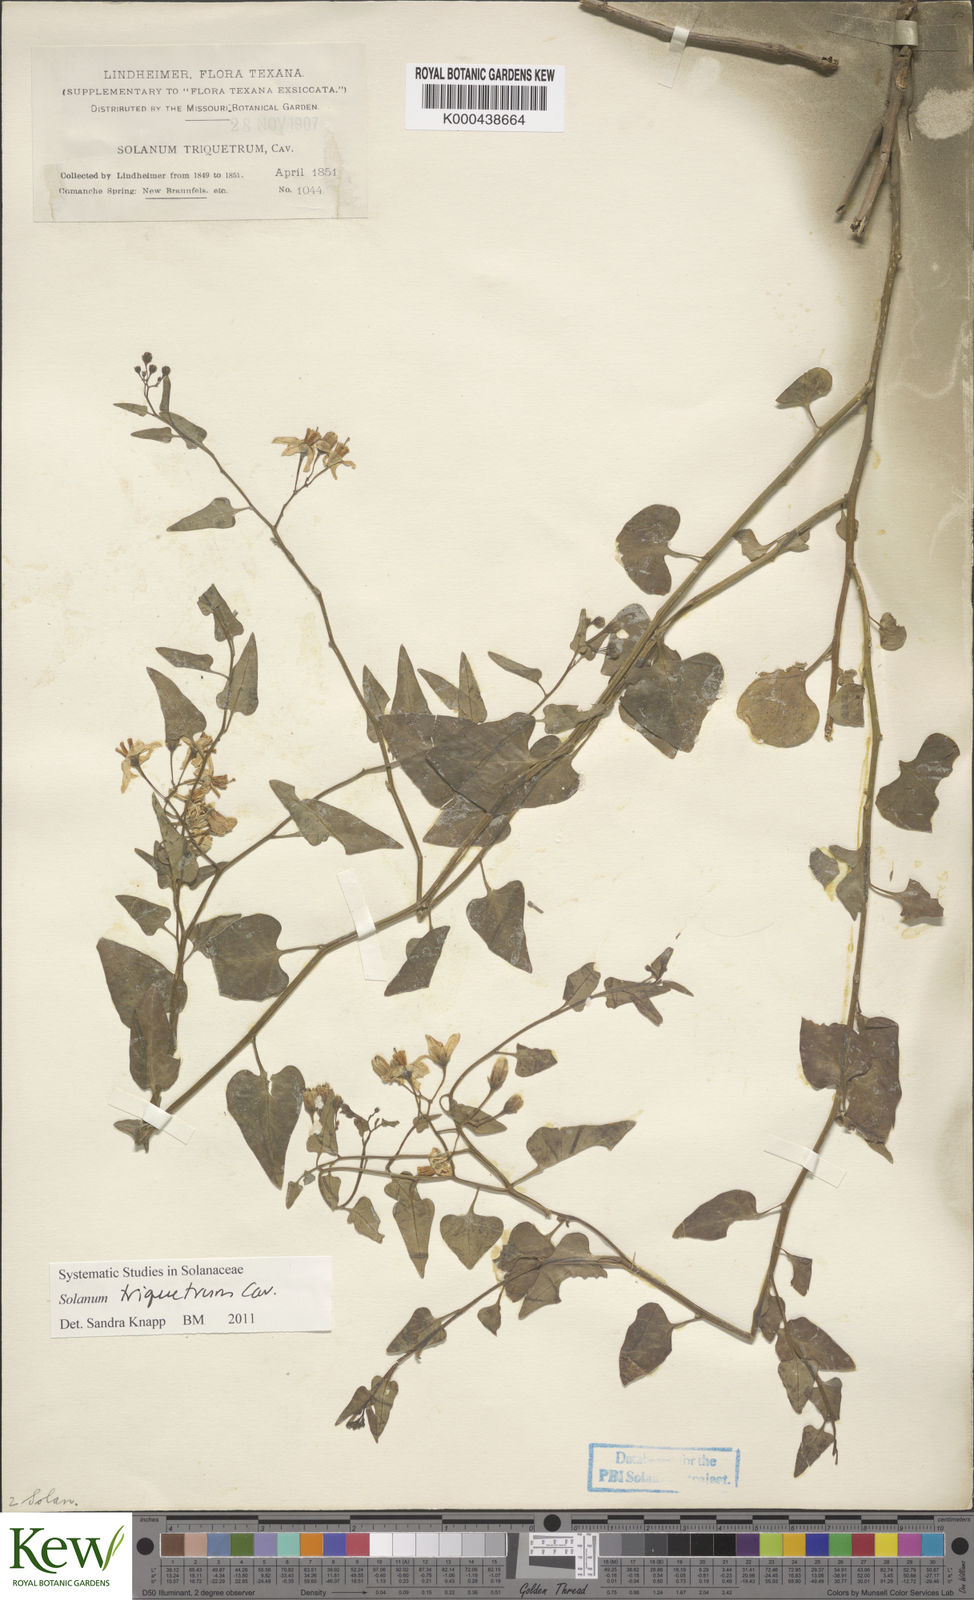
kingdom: Plantae
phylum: Tracheophyta
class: Magnoliopsida
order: Solanales
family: Solanaceae
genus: Solanum
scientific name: Solanum triquetrum
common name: Texas nightshade
